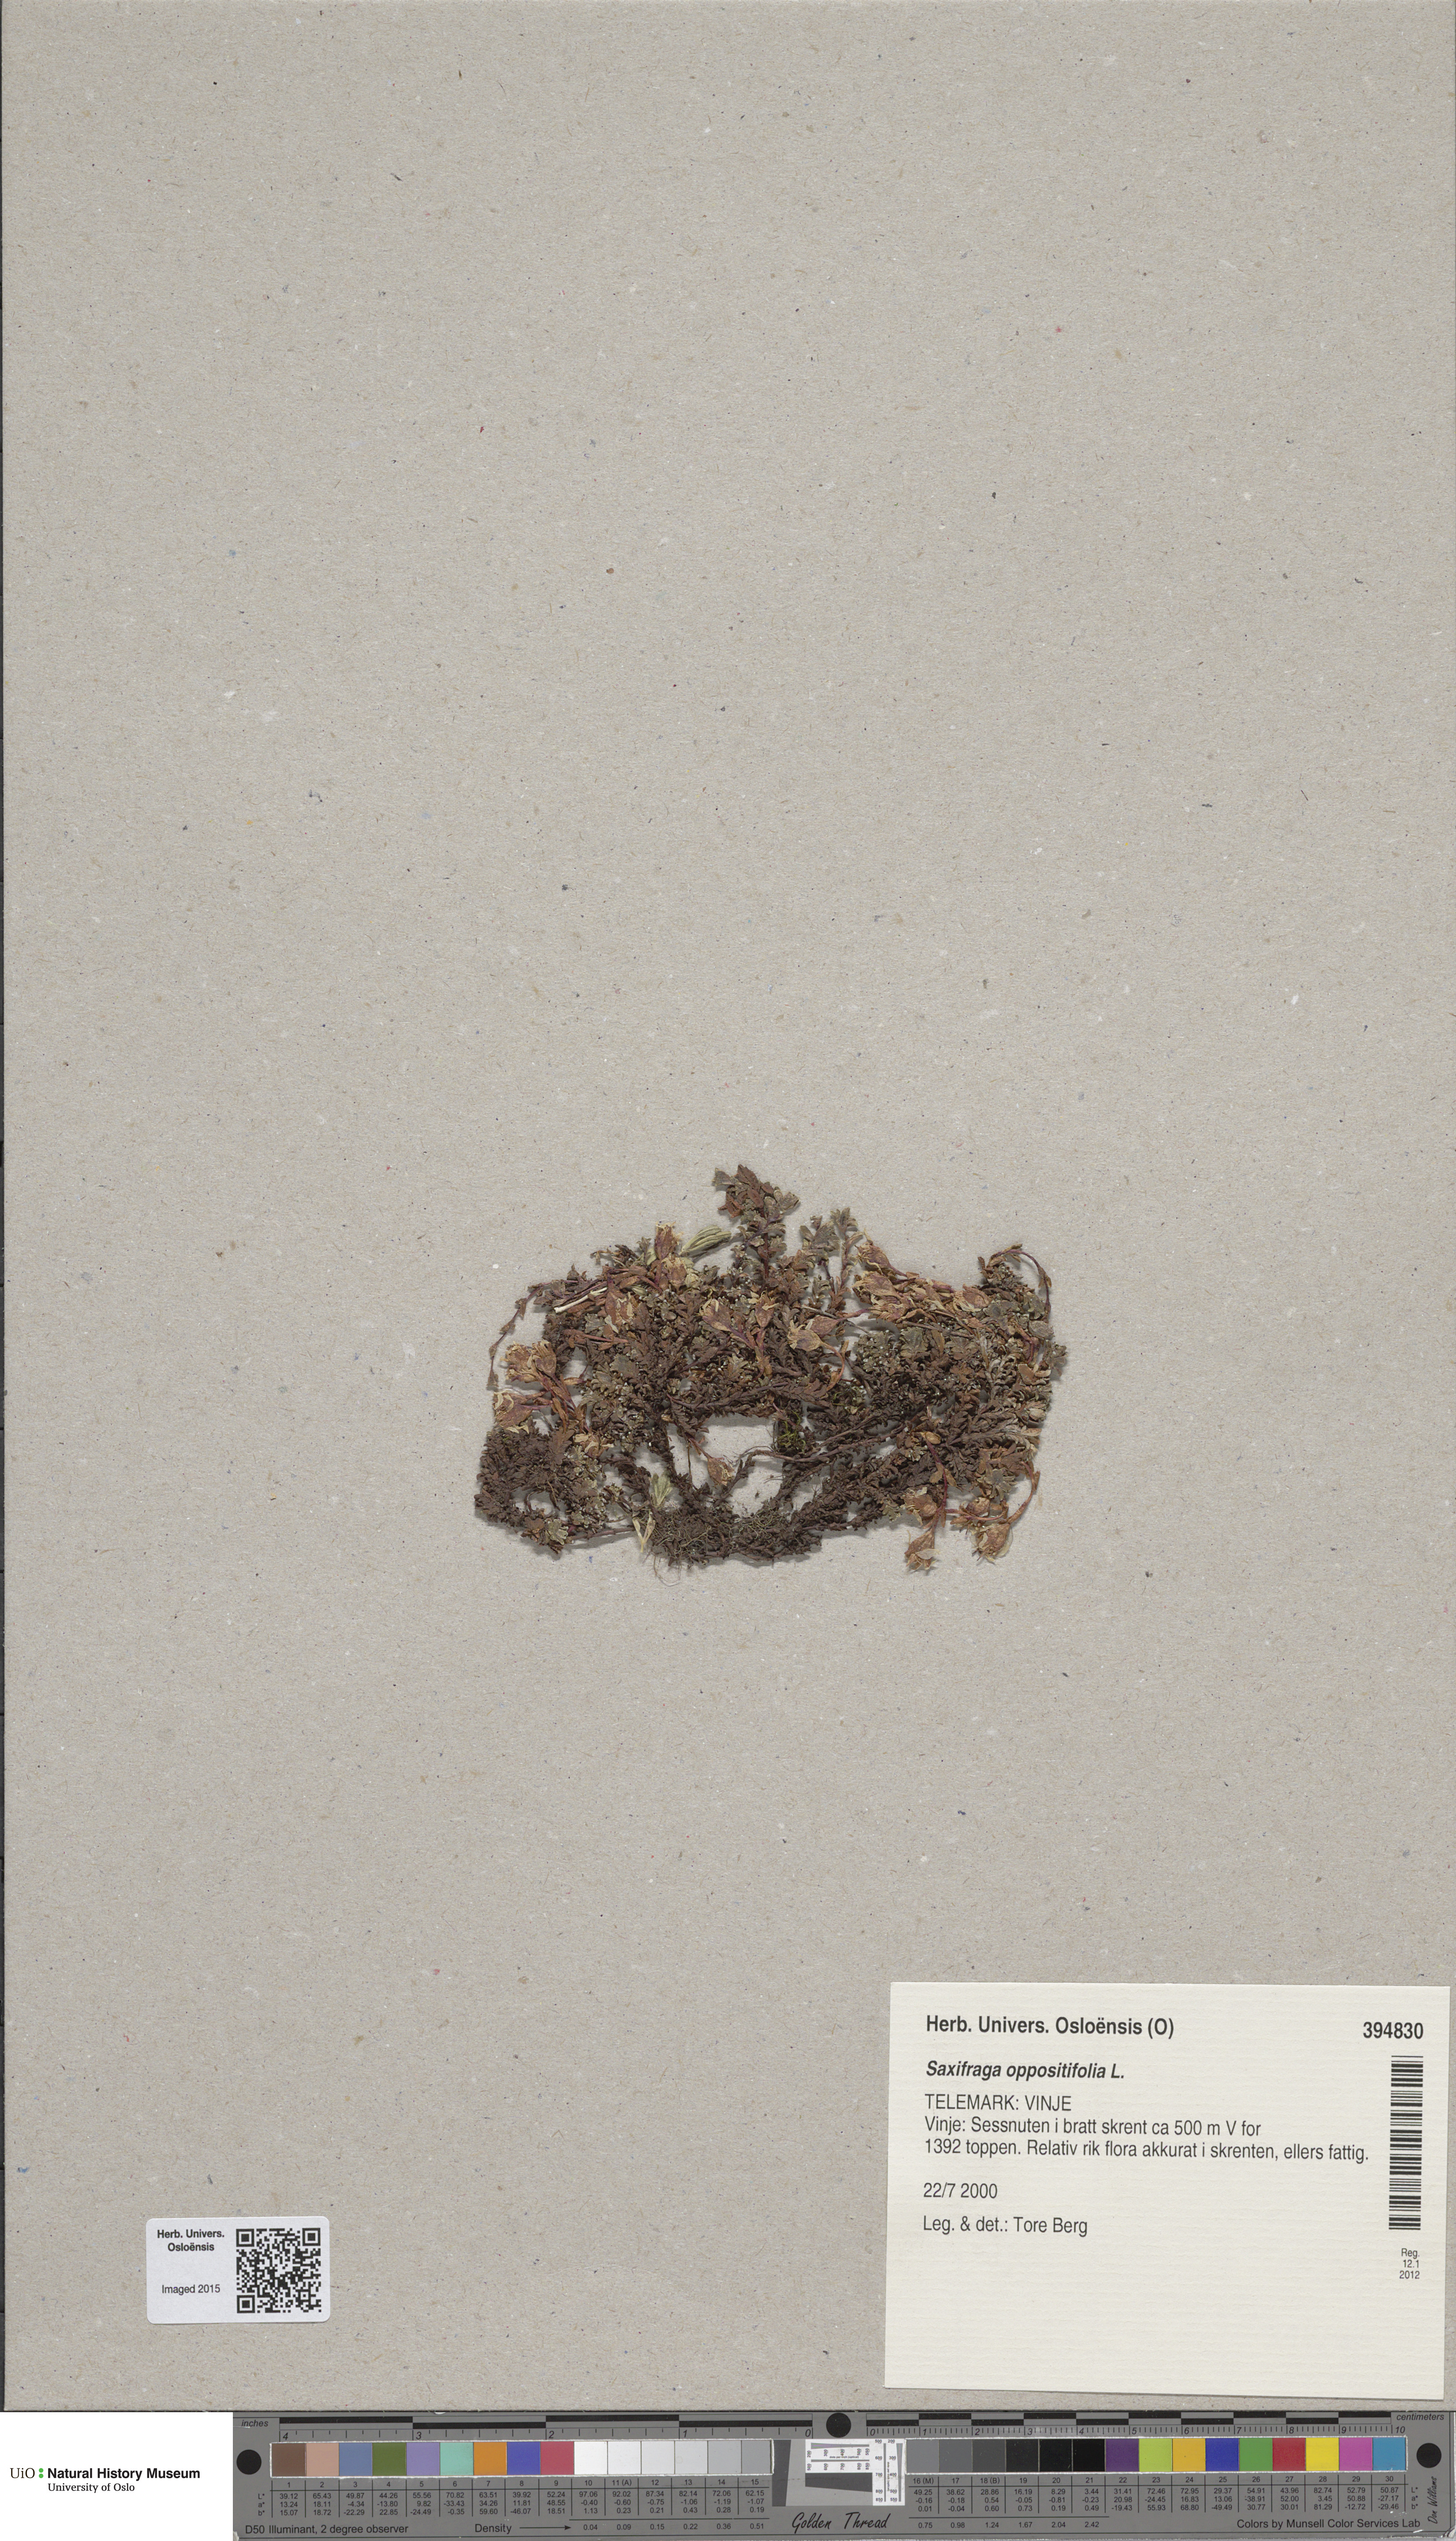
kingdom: Plantae
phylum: Tracheophyta
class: Magnoliopsida
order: Saxifragales
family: Saxifragaceae
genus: Saxifraga
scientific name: Saxifraga oppositifolia
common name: Purple saxifrage
